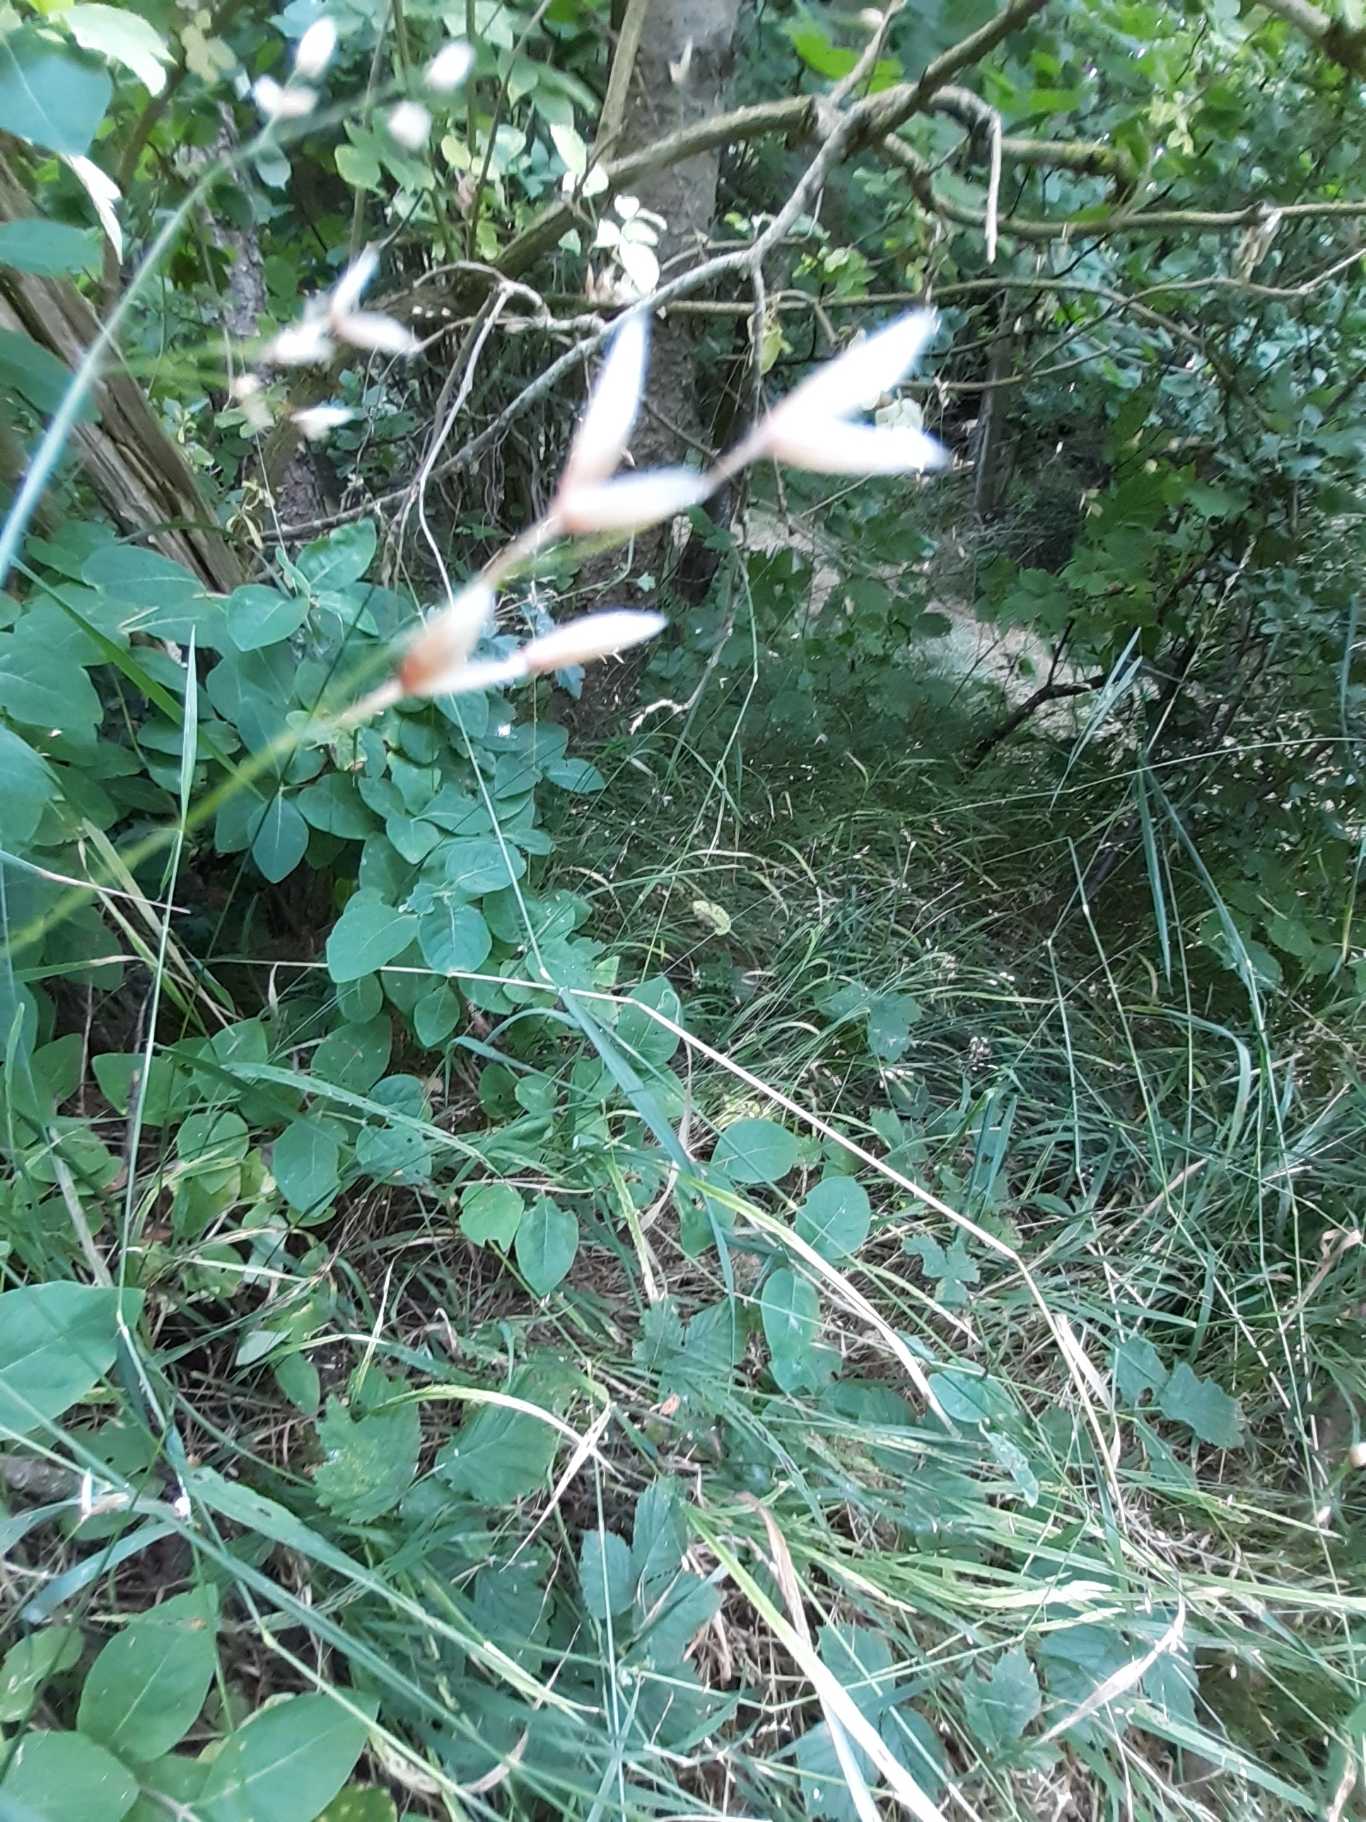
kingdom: Plantae
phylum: Tracheophyta
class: Liliopsida
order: Poales
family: Poaceae
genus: Melica
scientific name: Melica uniflora
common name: Enblomstret flitteraks
